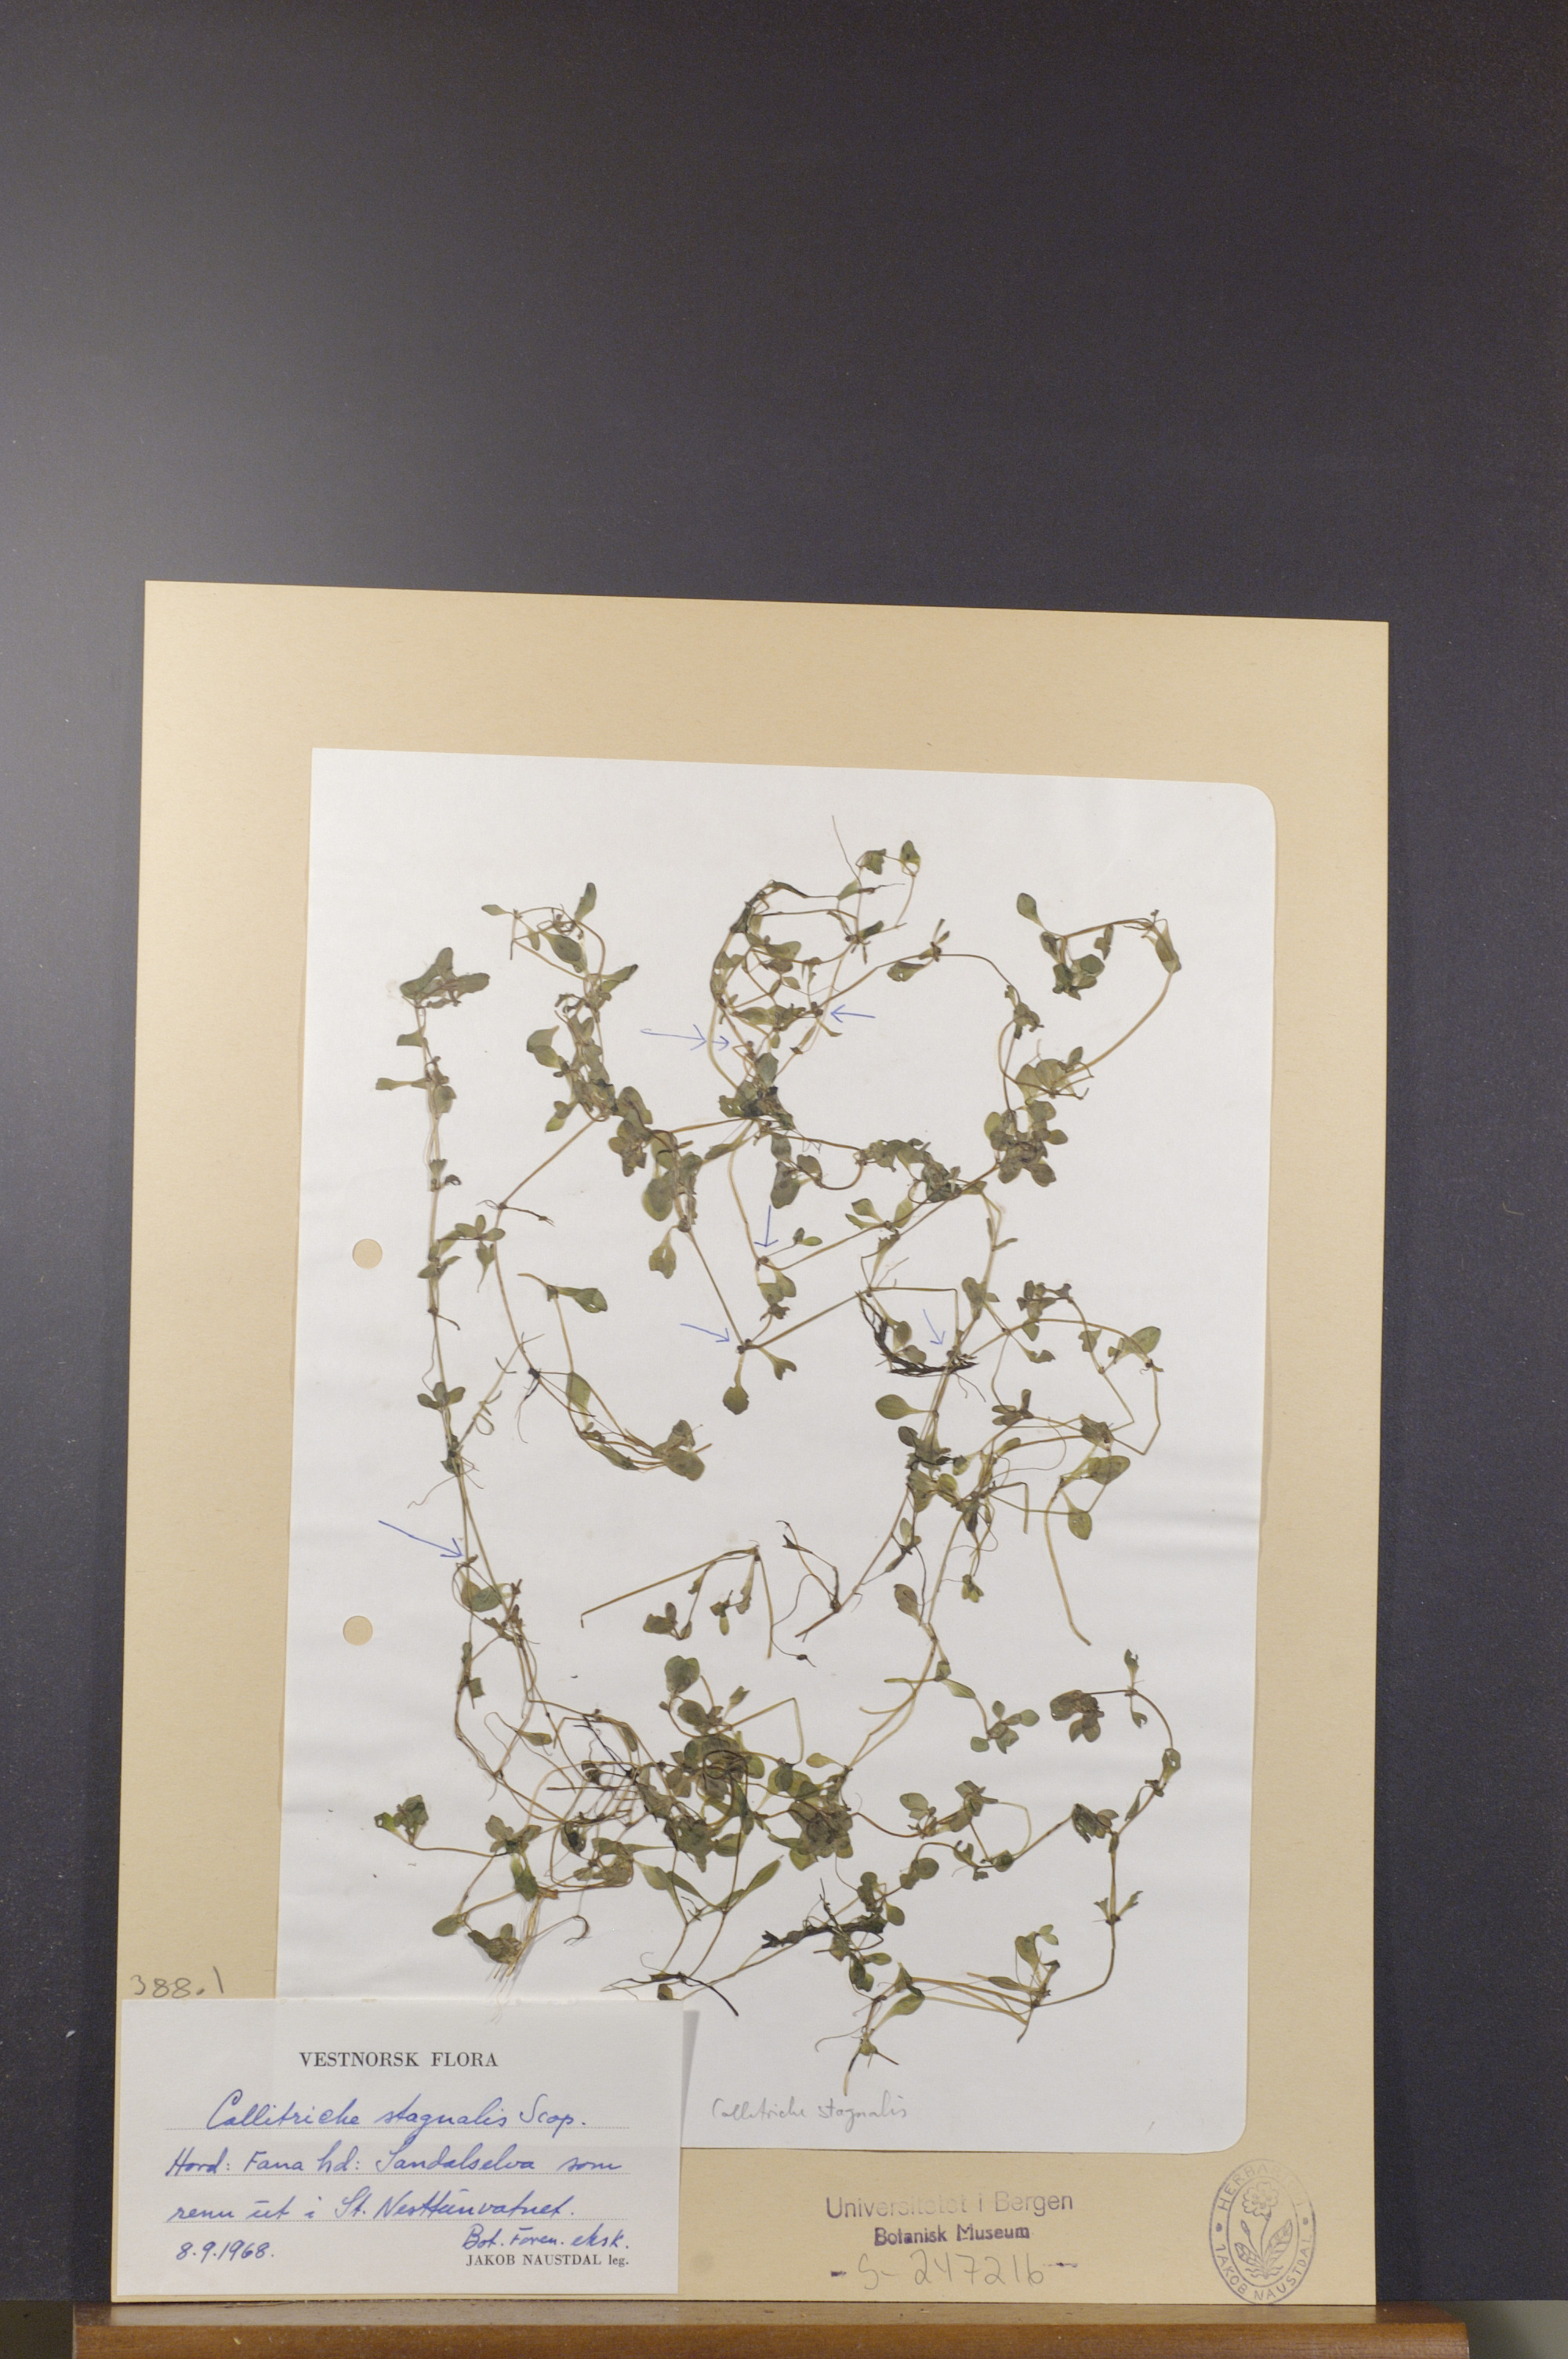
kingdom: Plantae
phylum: Tracheophyta
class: Magnoliopsida
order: Lamiales
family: Plantaginaceae
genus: Callitriche
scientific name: Callitriche stagnalis
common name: Common water-starwort
